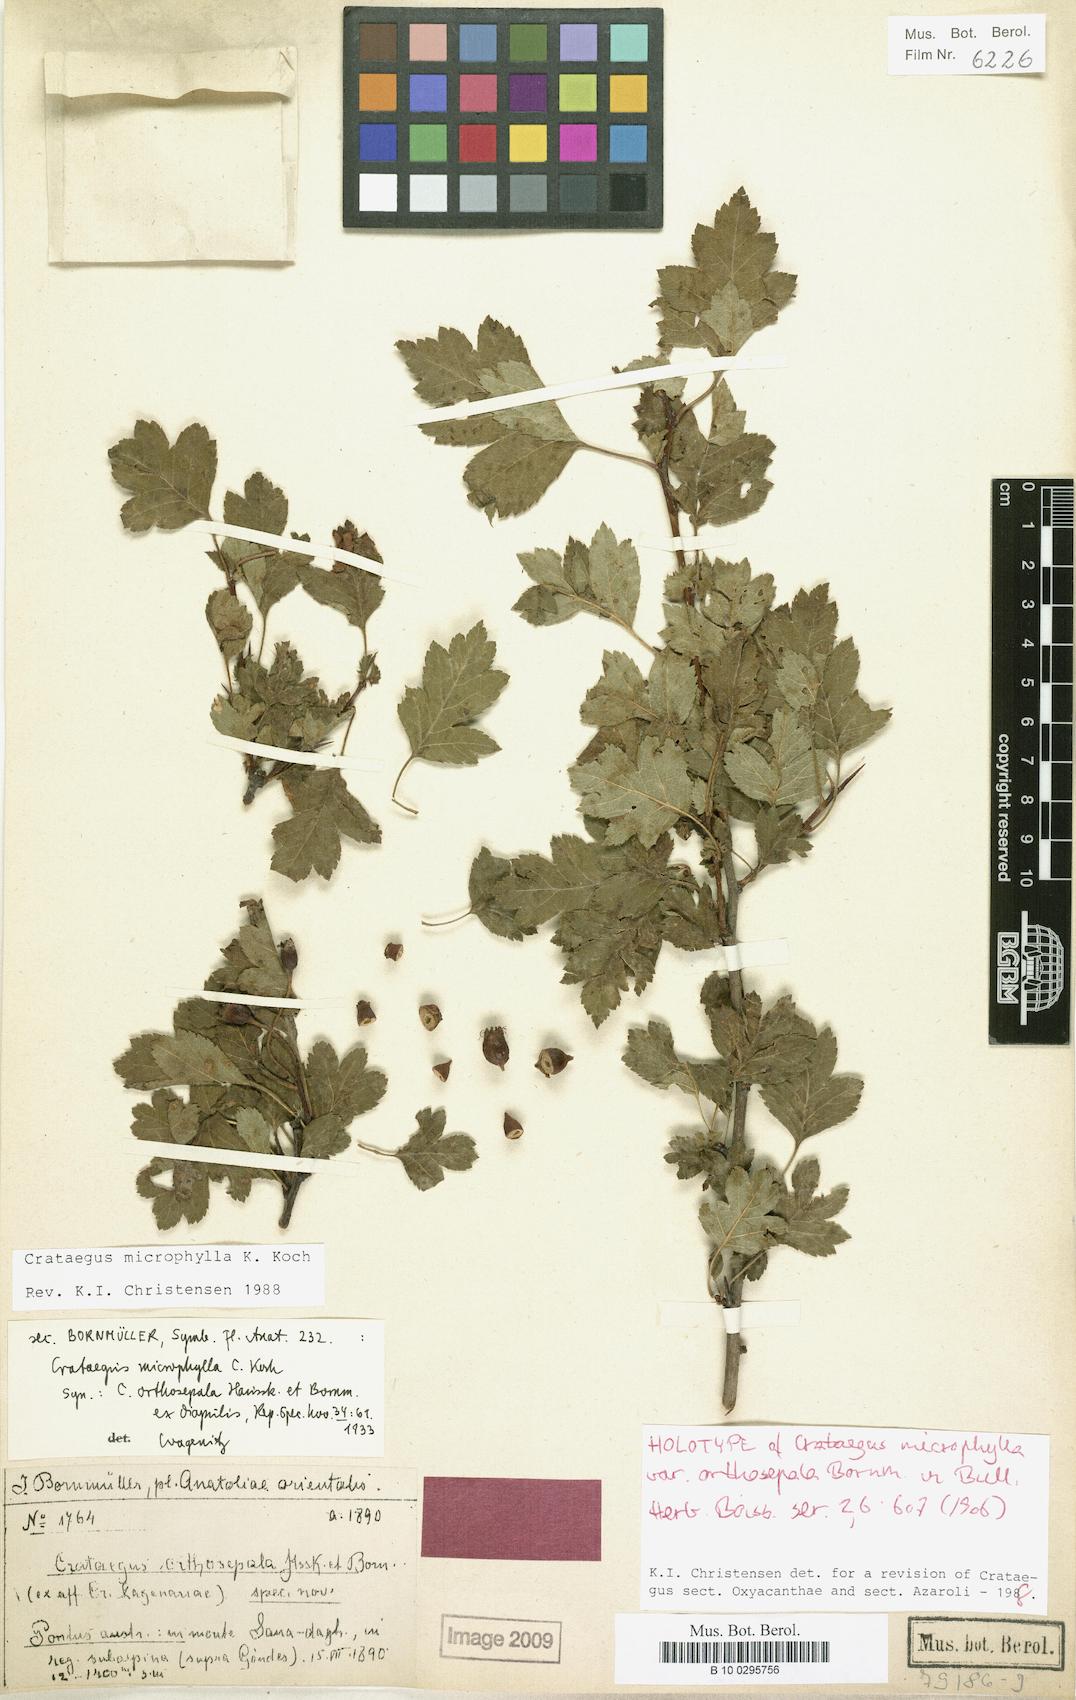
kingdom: Plantae
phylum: Tracheophyta
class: Magnoliopsida
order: Rosales
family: Rosaceae
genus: Crataegus
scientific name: Crataegus microphylla
